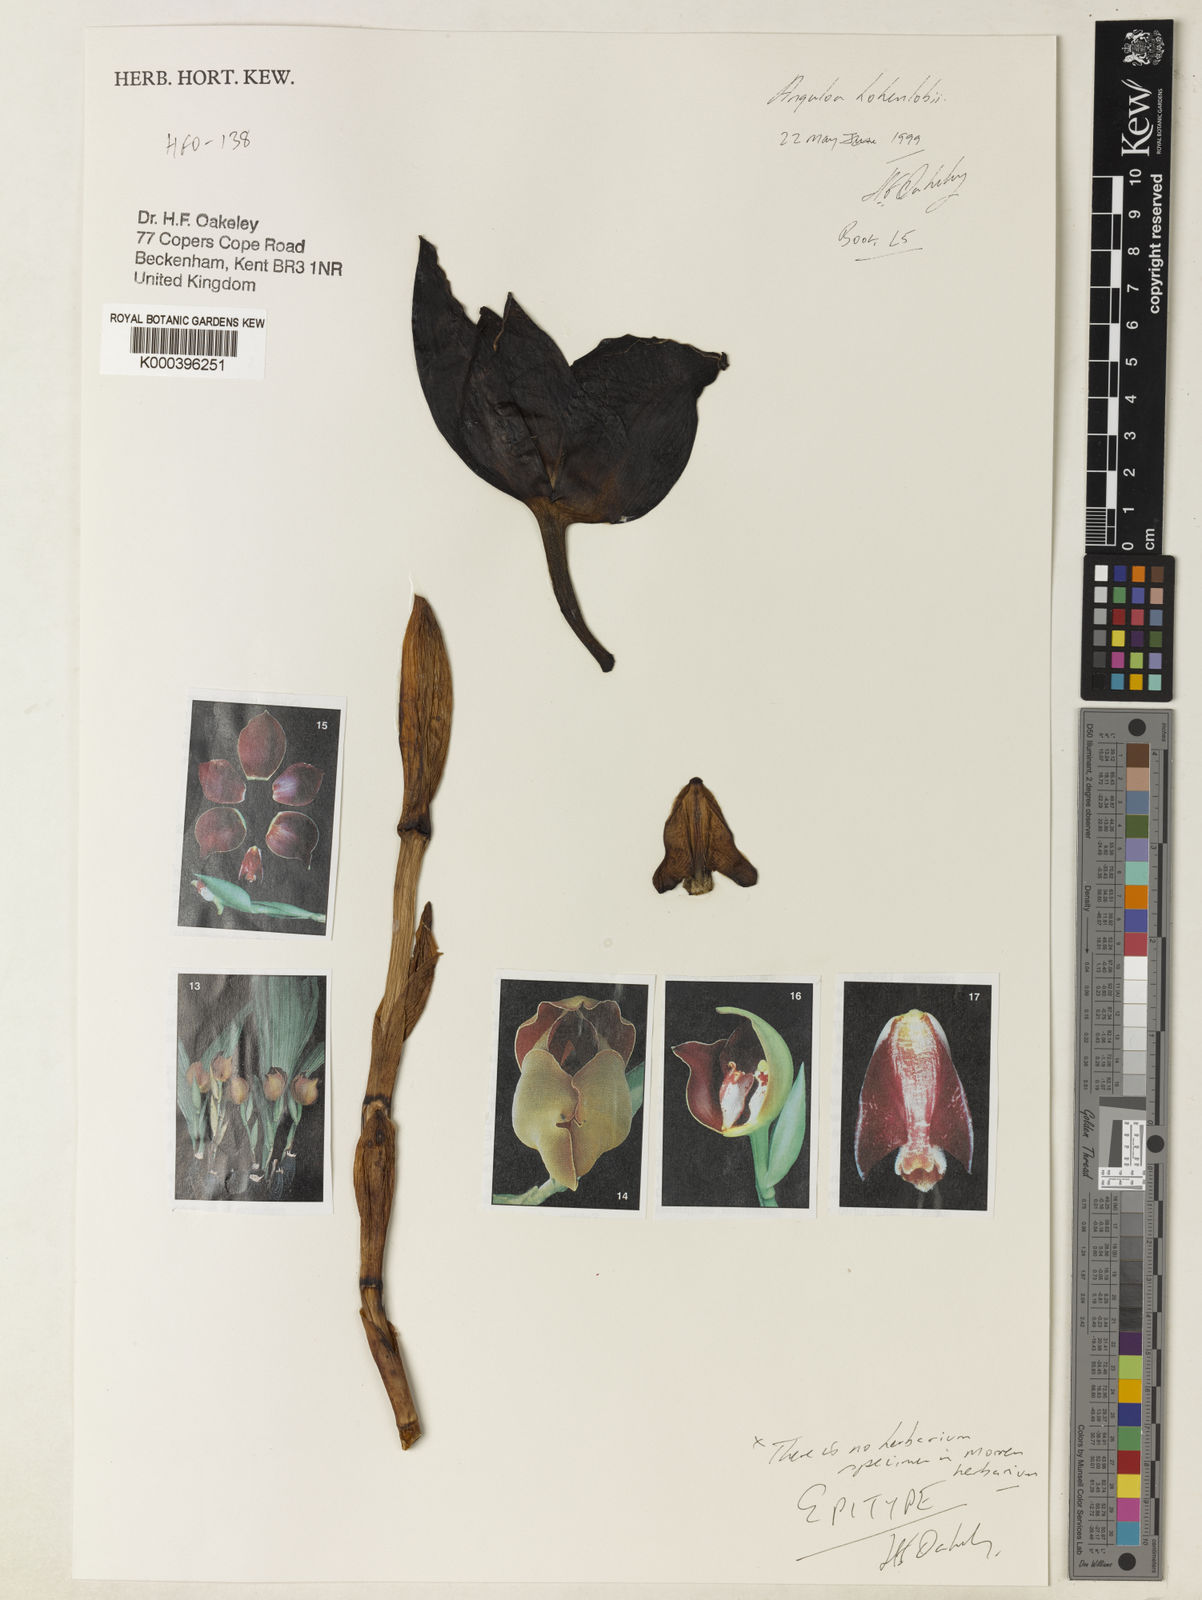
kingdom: Plantae
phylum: Tracheophyta
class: Liliopsida
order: Asparagales
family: Orchidaceae
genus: Anguloa
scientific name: Anguloa hohenlohii
